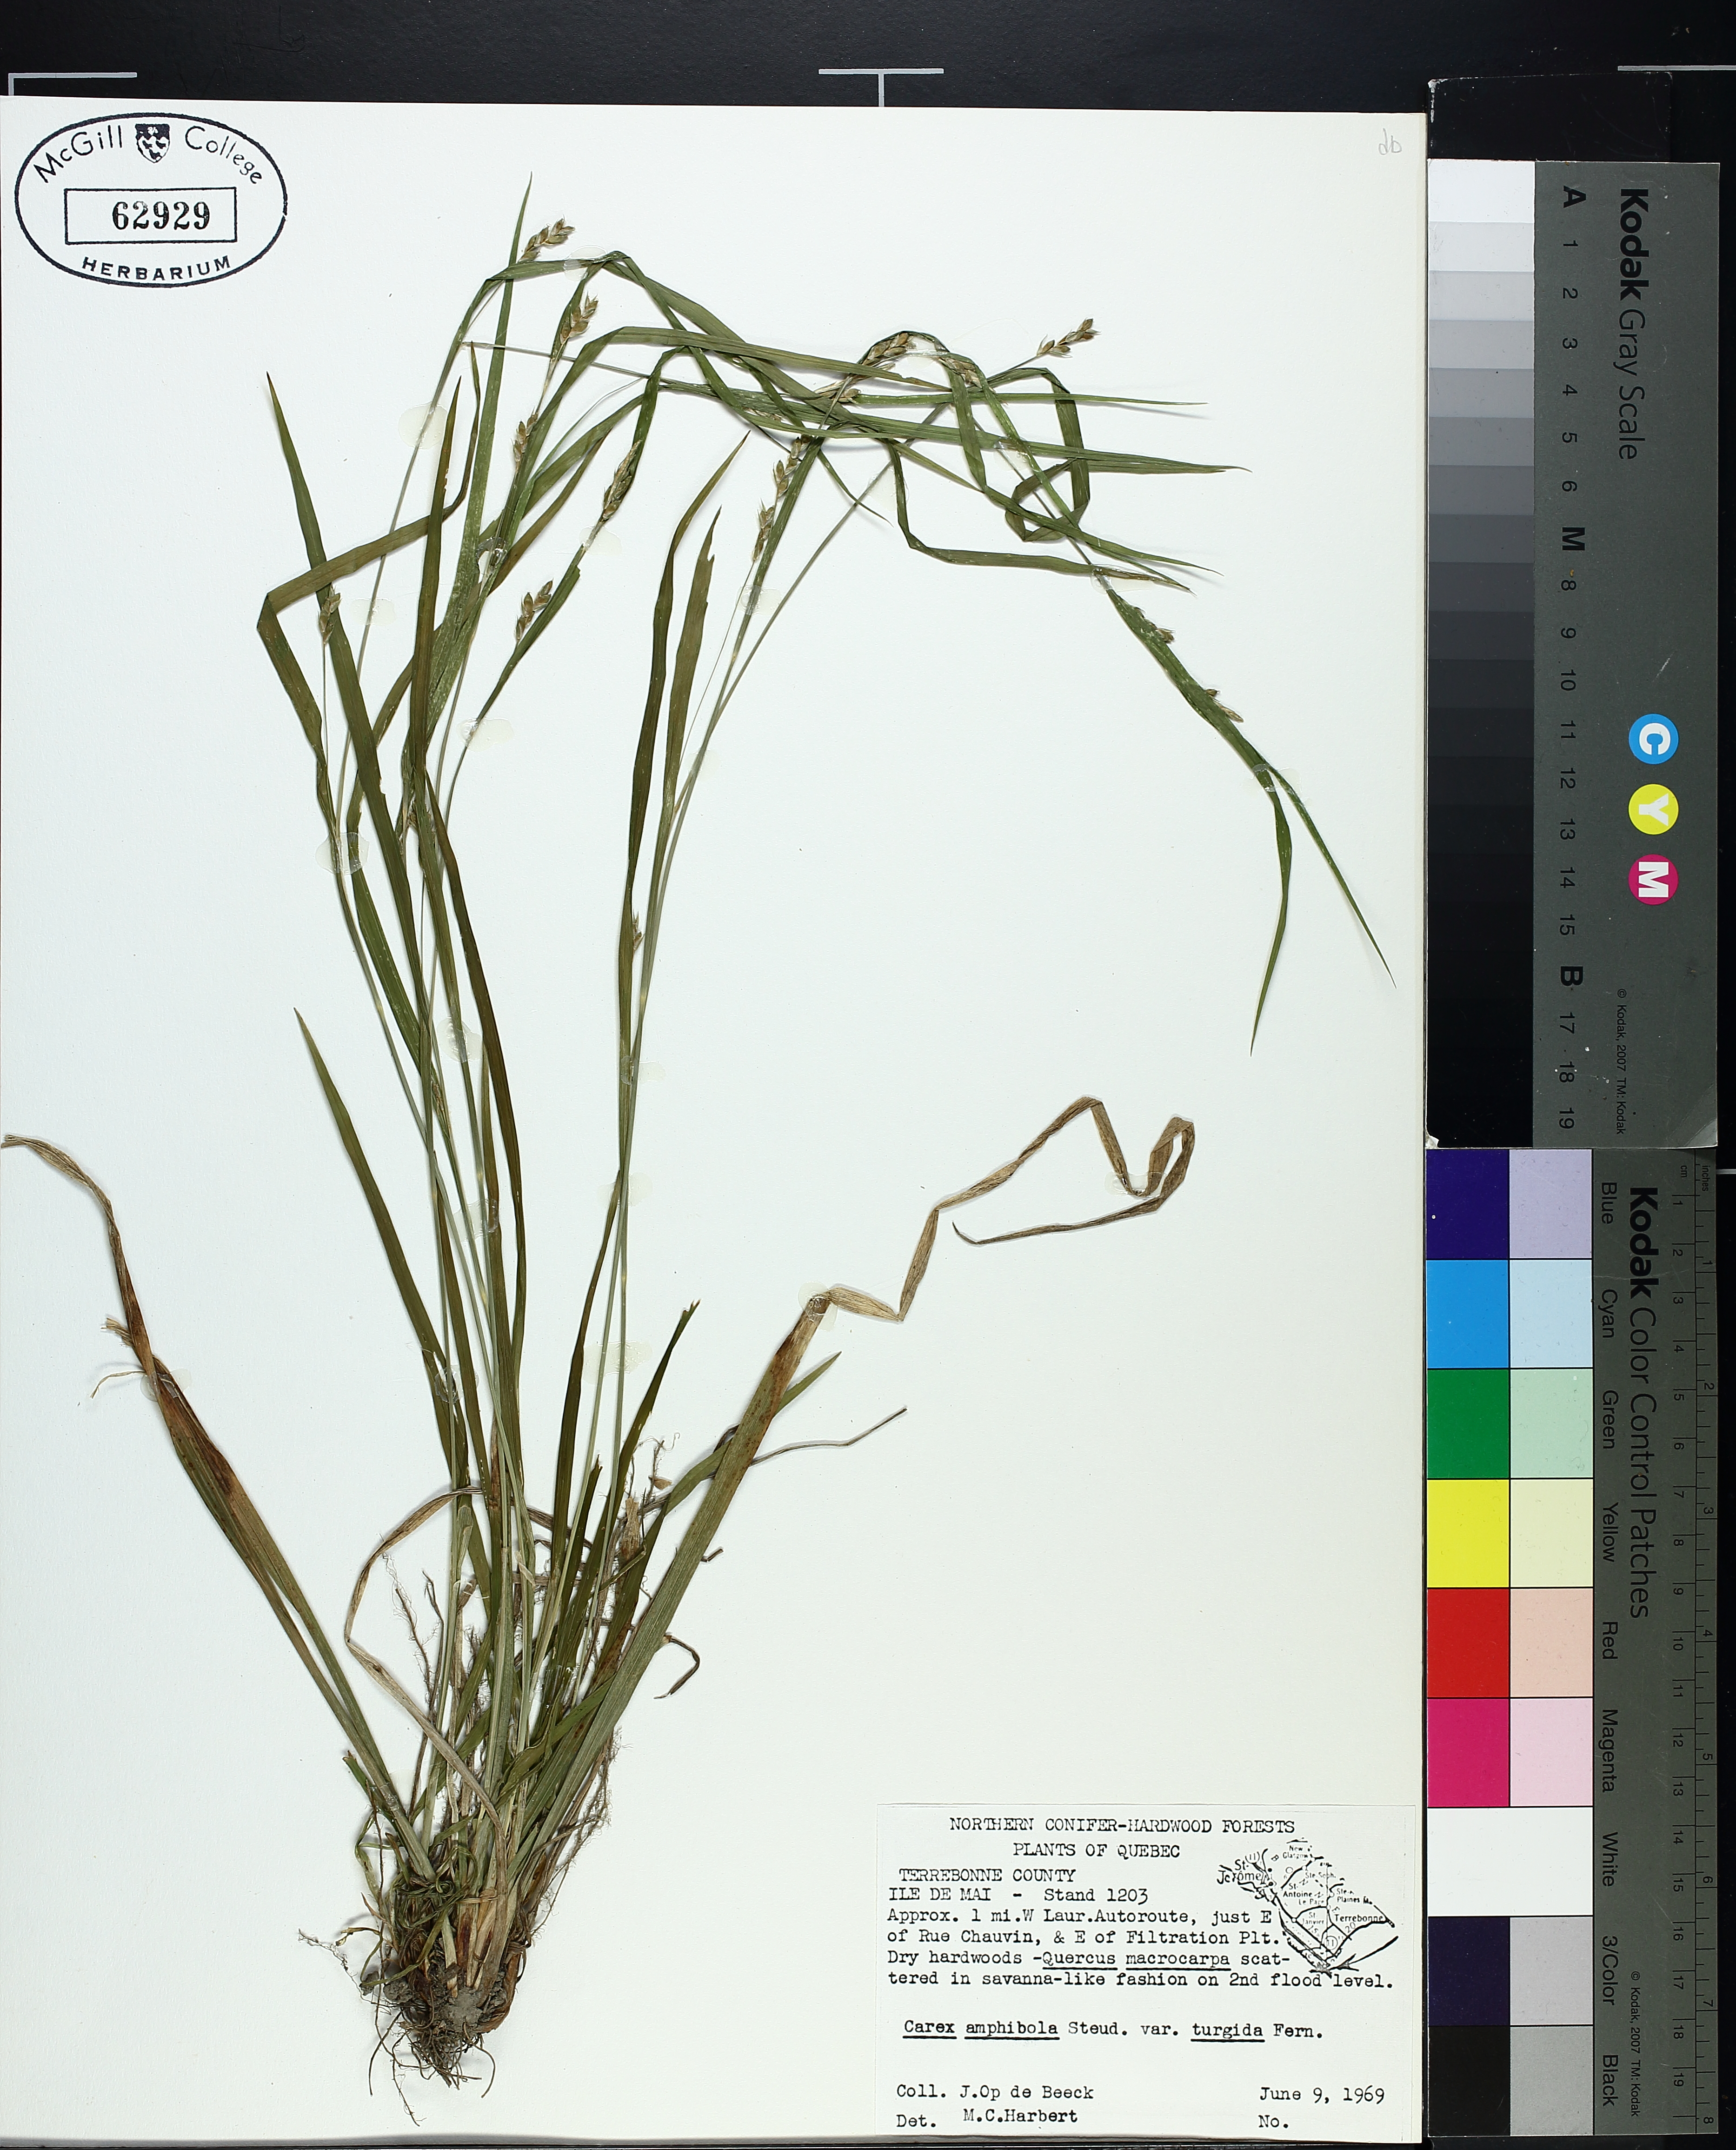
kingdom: Plantae
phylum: Tracheophyta
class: Liliopsida
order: Poales
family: Cyperaceae
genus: Carex
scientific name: Carex grisea
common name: Eastern narrow-leaved sedge
